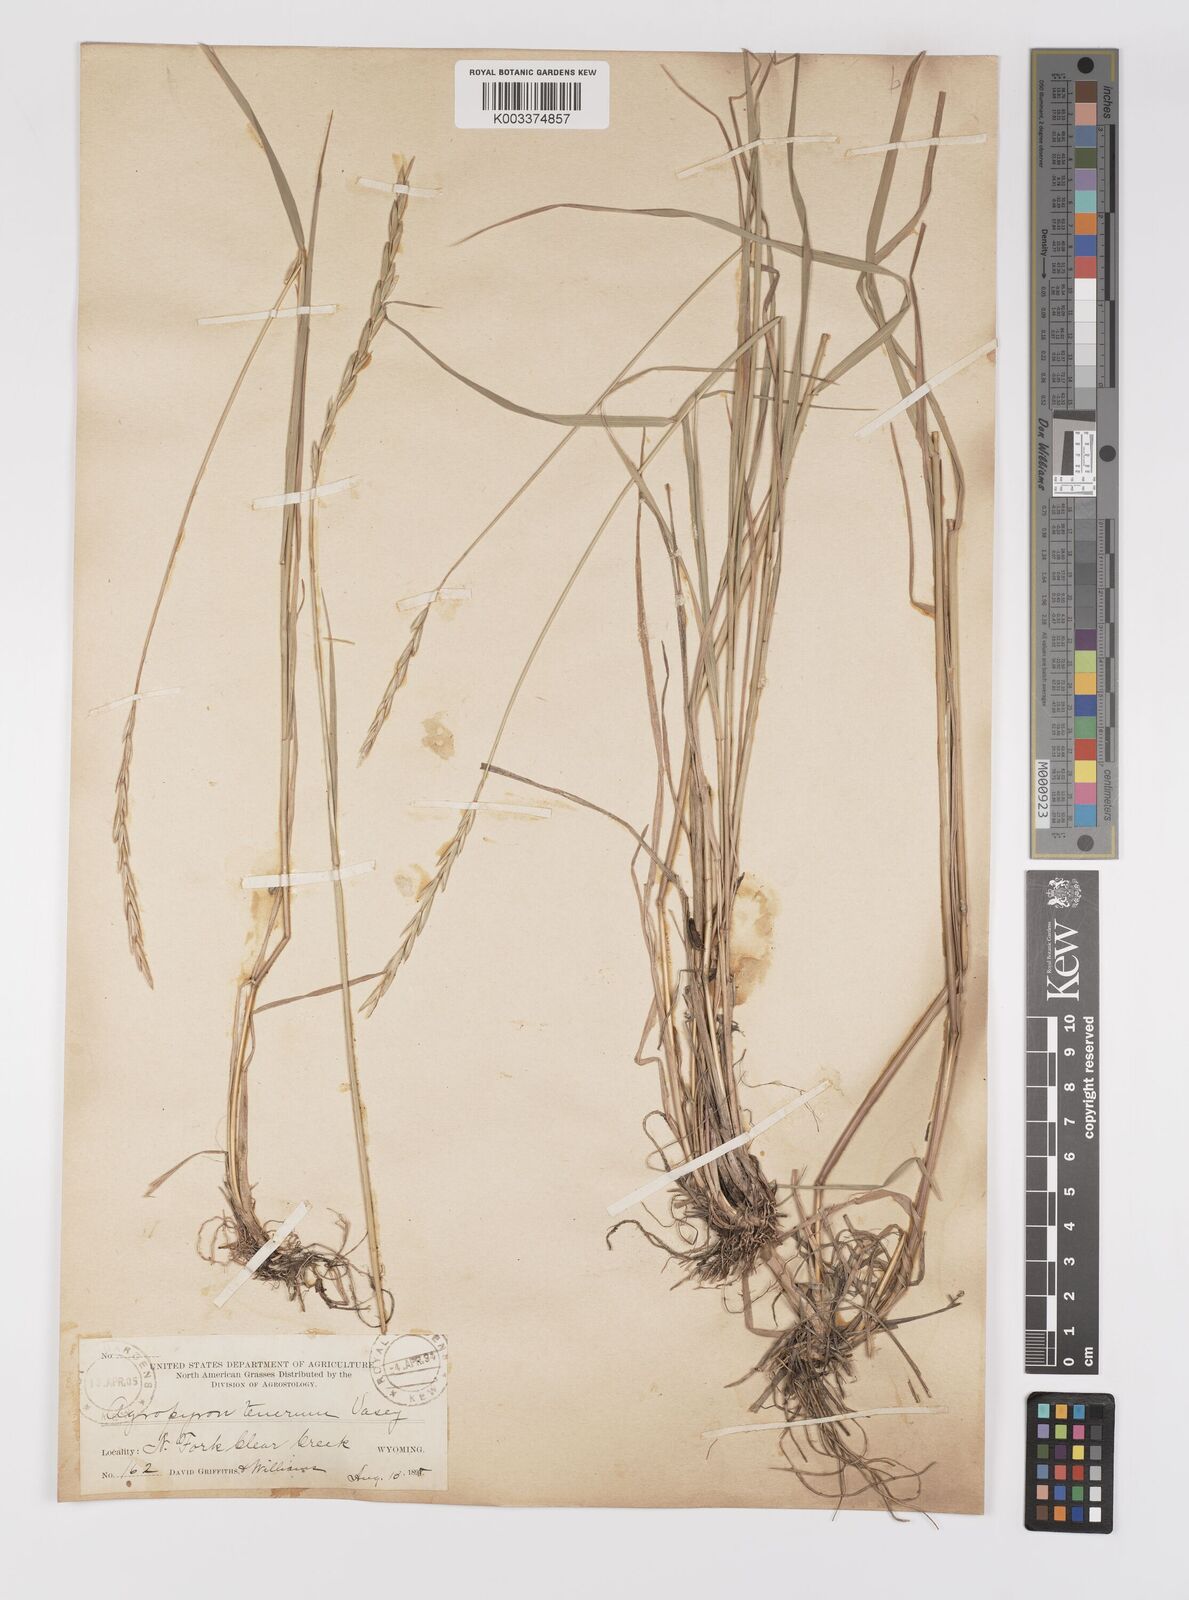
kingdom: Plantae
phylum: Tracheophyta
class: Liliopsida
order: Poales
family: Poaceae
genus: Elymus
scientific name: Elymus violaceus
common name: Arctic wheatgrass
